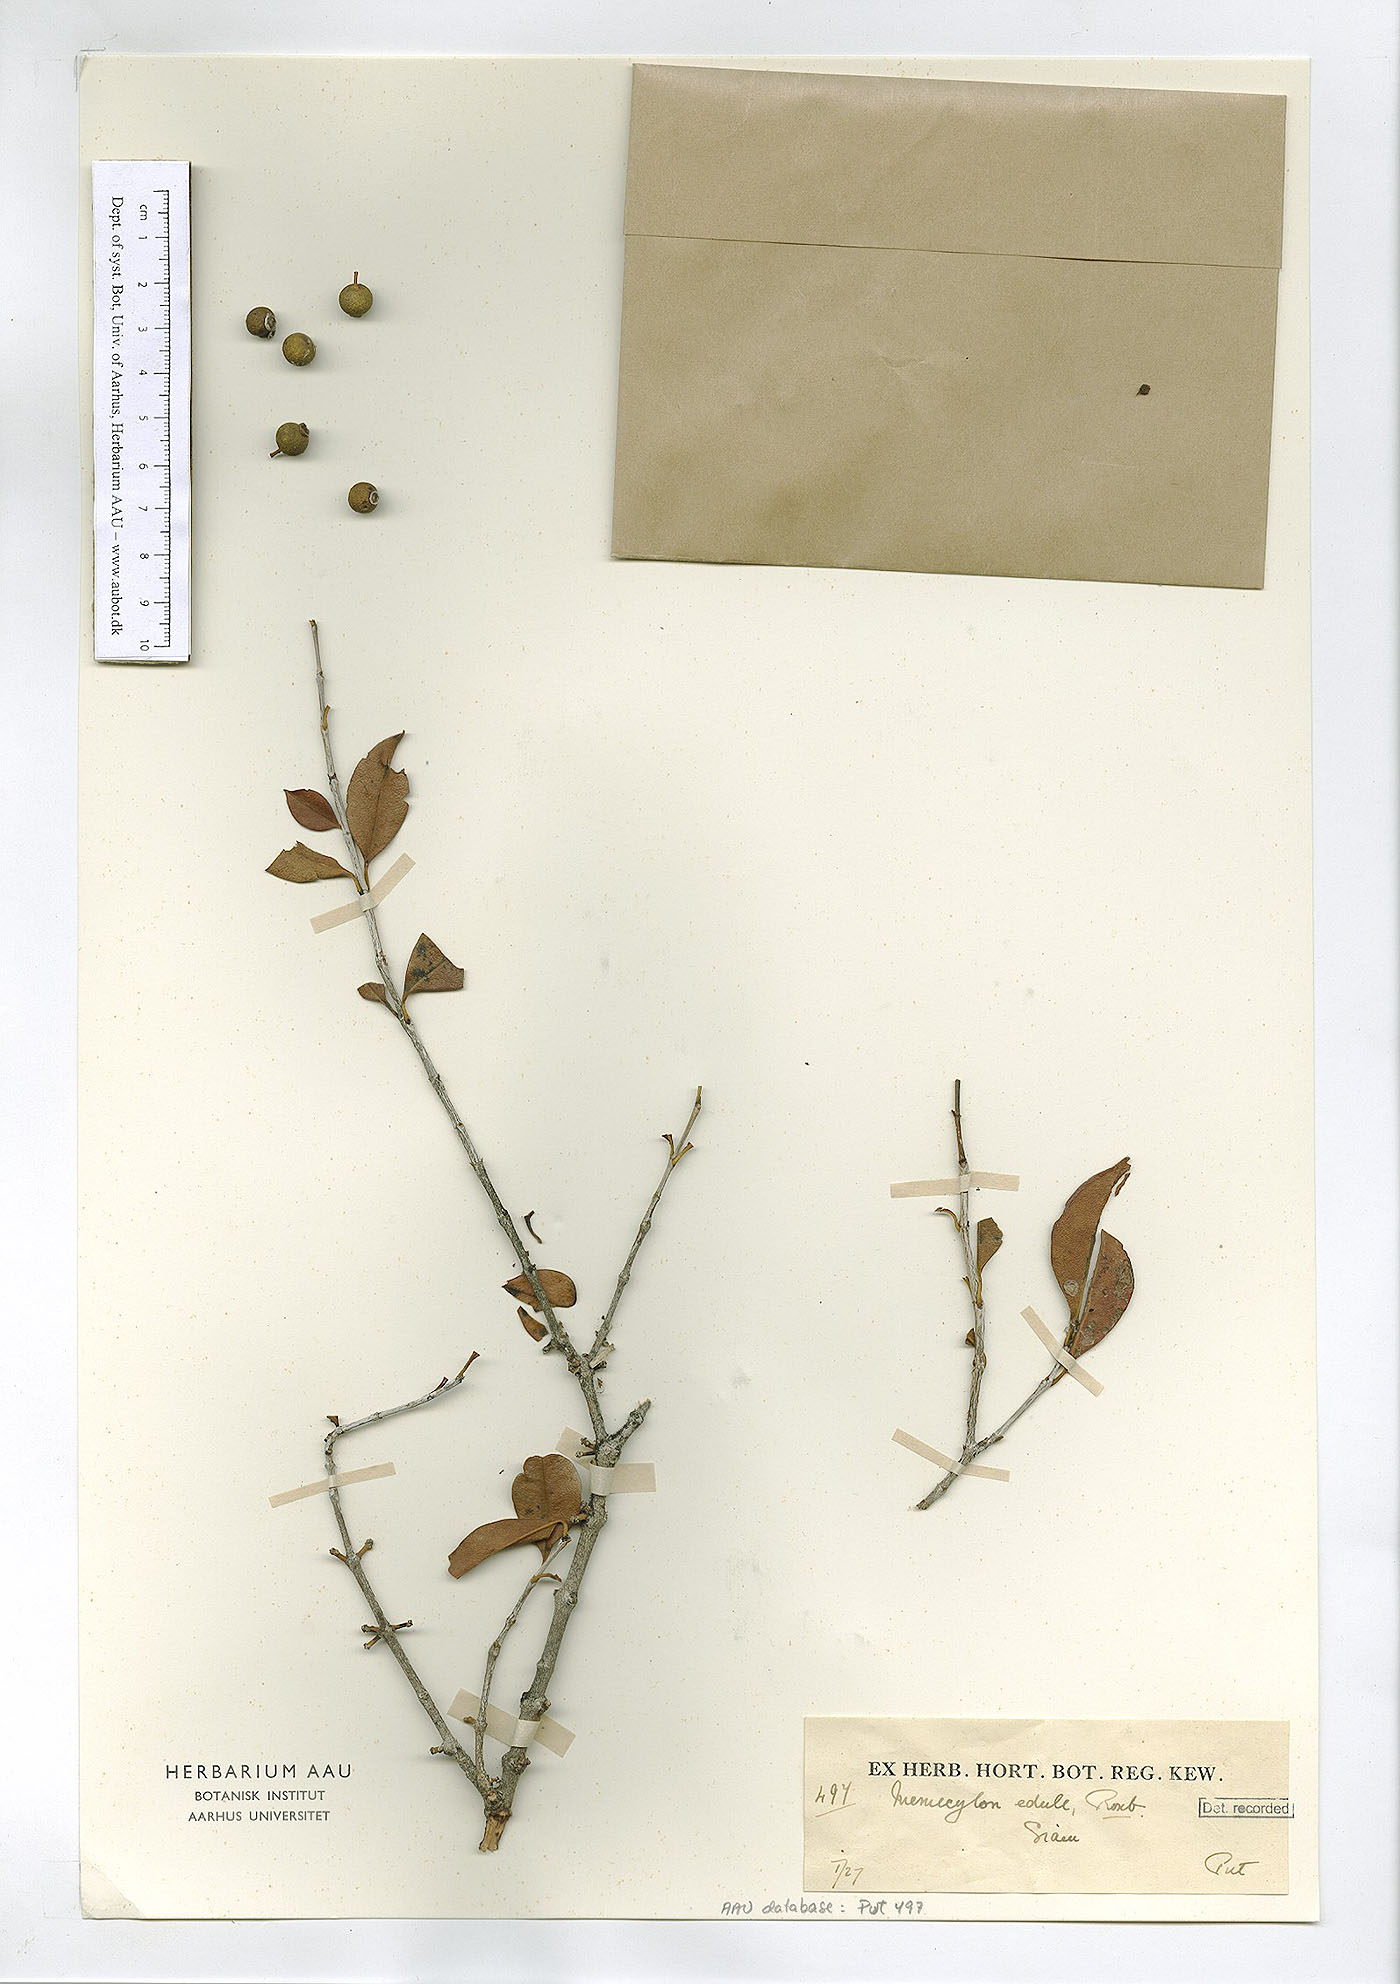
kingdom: Plantae
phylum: Tracheophyta
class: Magnoliopsida
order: Myrtales
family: Melastomataceae
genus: Memecylon
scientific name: Memecylon scutellatum
